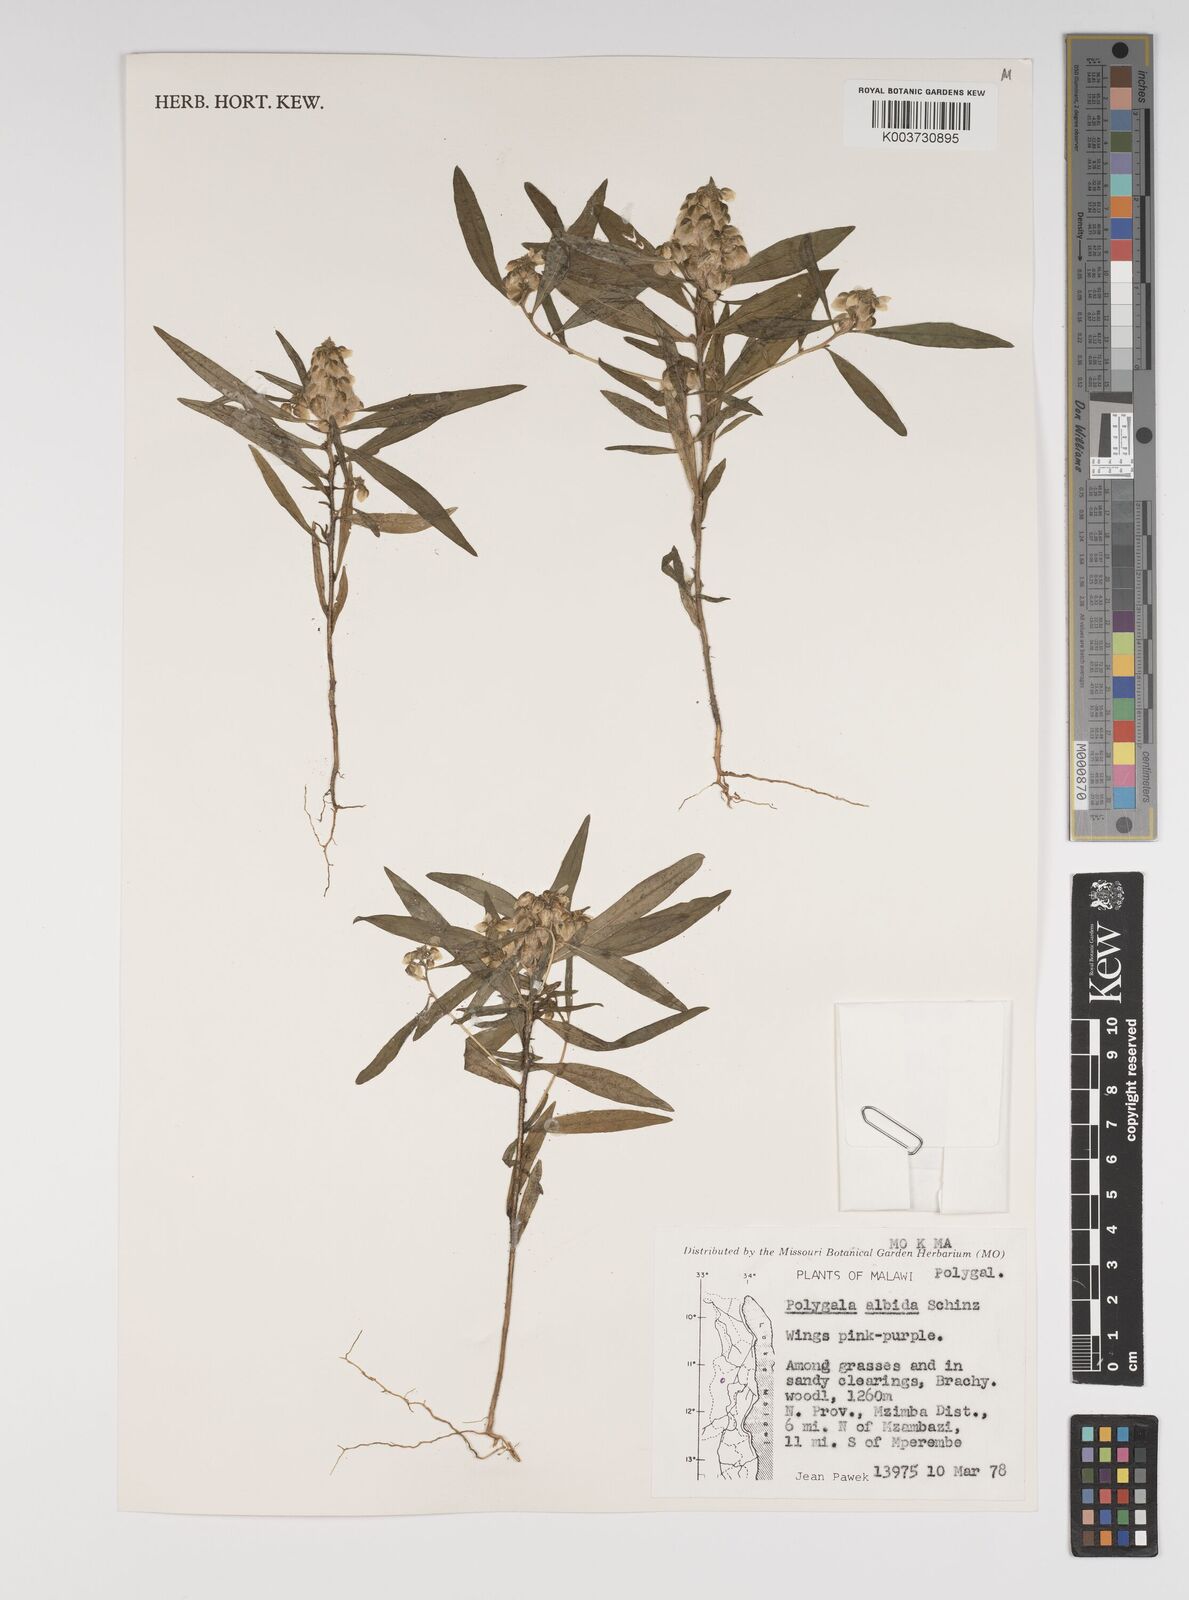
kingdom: Plantae
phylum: Tracheophyta
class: Magnoliopsida
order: Fabales
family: Polygalaceae
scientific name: Polygalaceae
